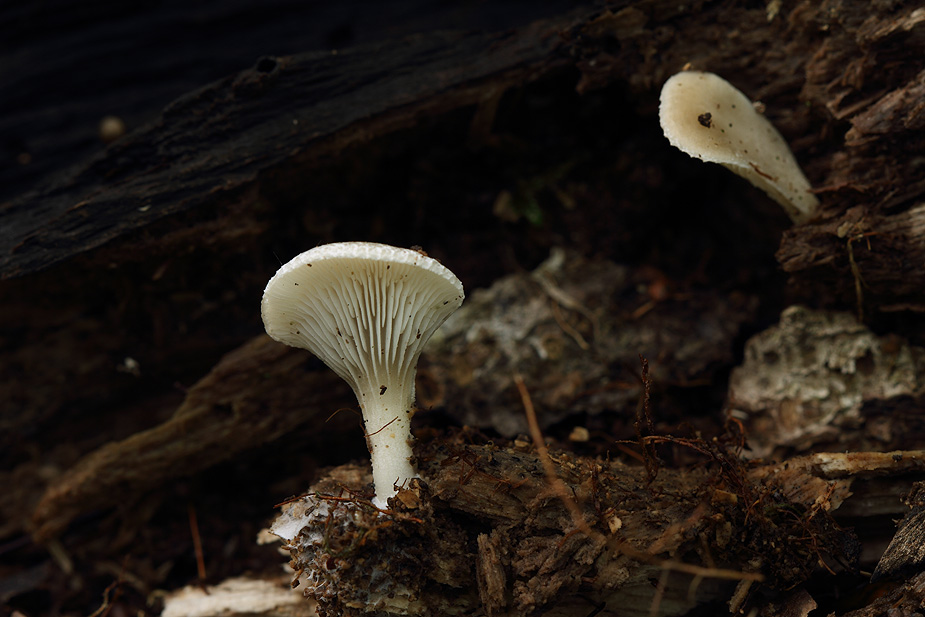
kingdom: Fungi
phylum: Basidiomycota
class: Agaricomycetes
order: Agaricales
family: Pleurotaceae
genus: Hohenbuehelia
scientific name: Hohenbuehelia auriscalpium
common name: spatel-filthat
